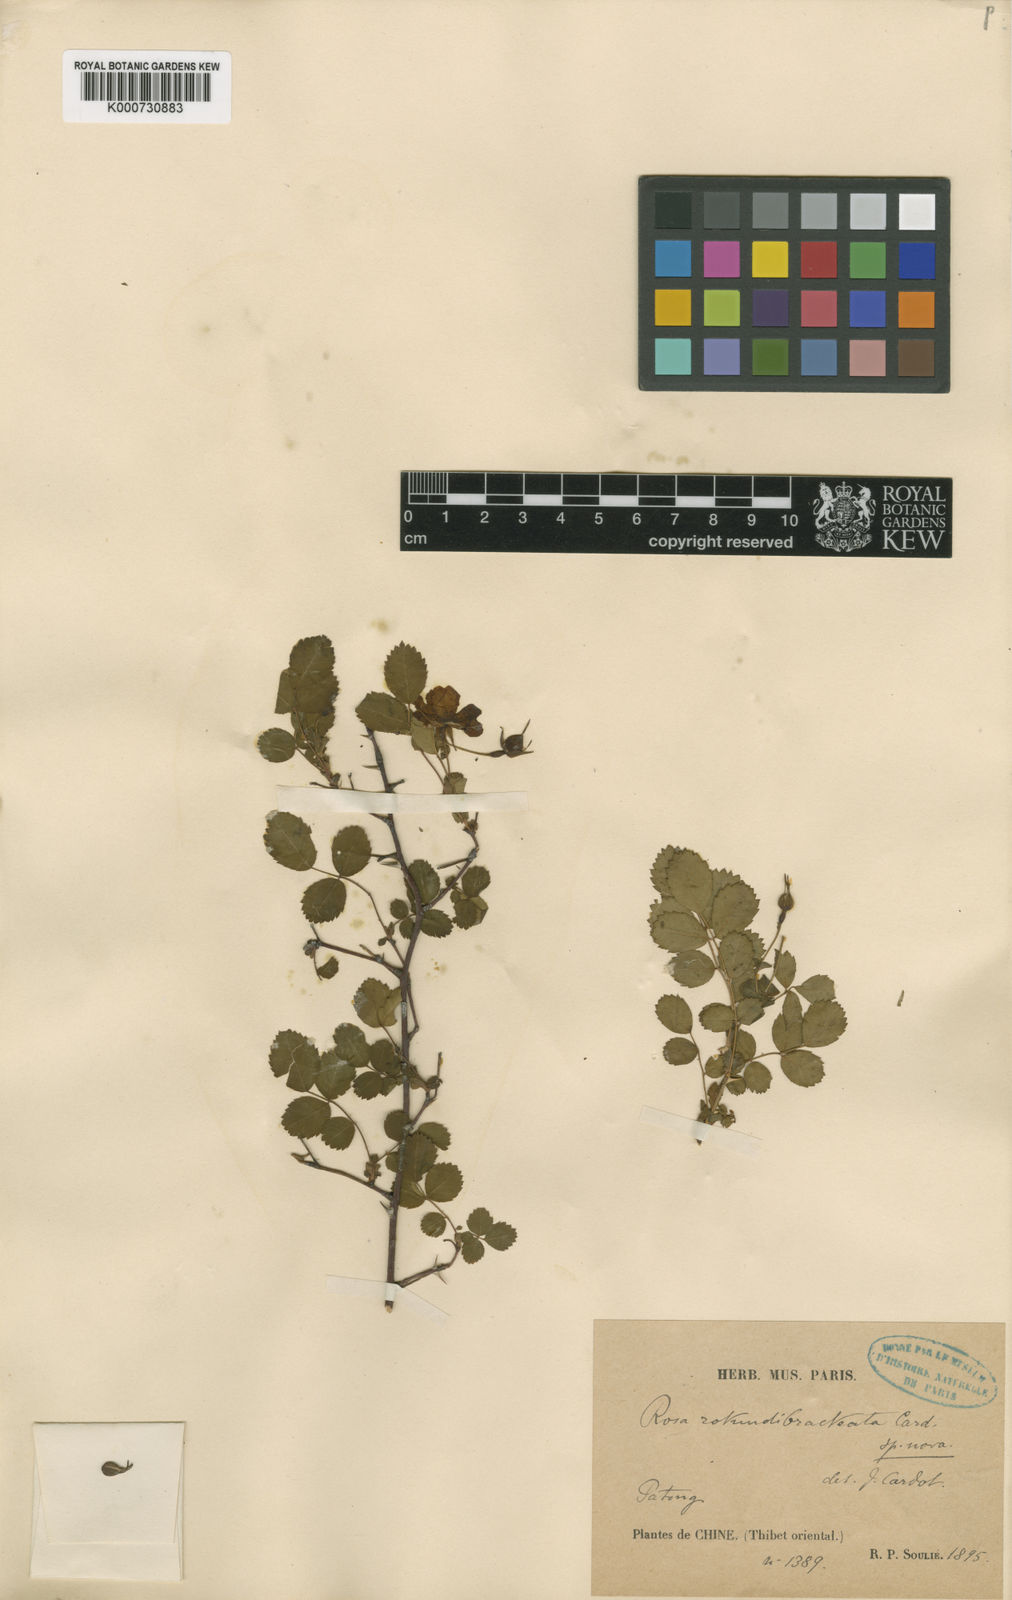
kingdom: Plantae
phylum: Tracheophyta
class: Magnoliopsida
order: Rosales
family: Rosaceae
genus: Rosa
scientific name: Rosa multibracteata
